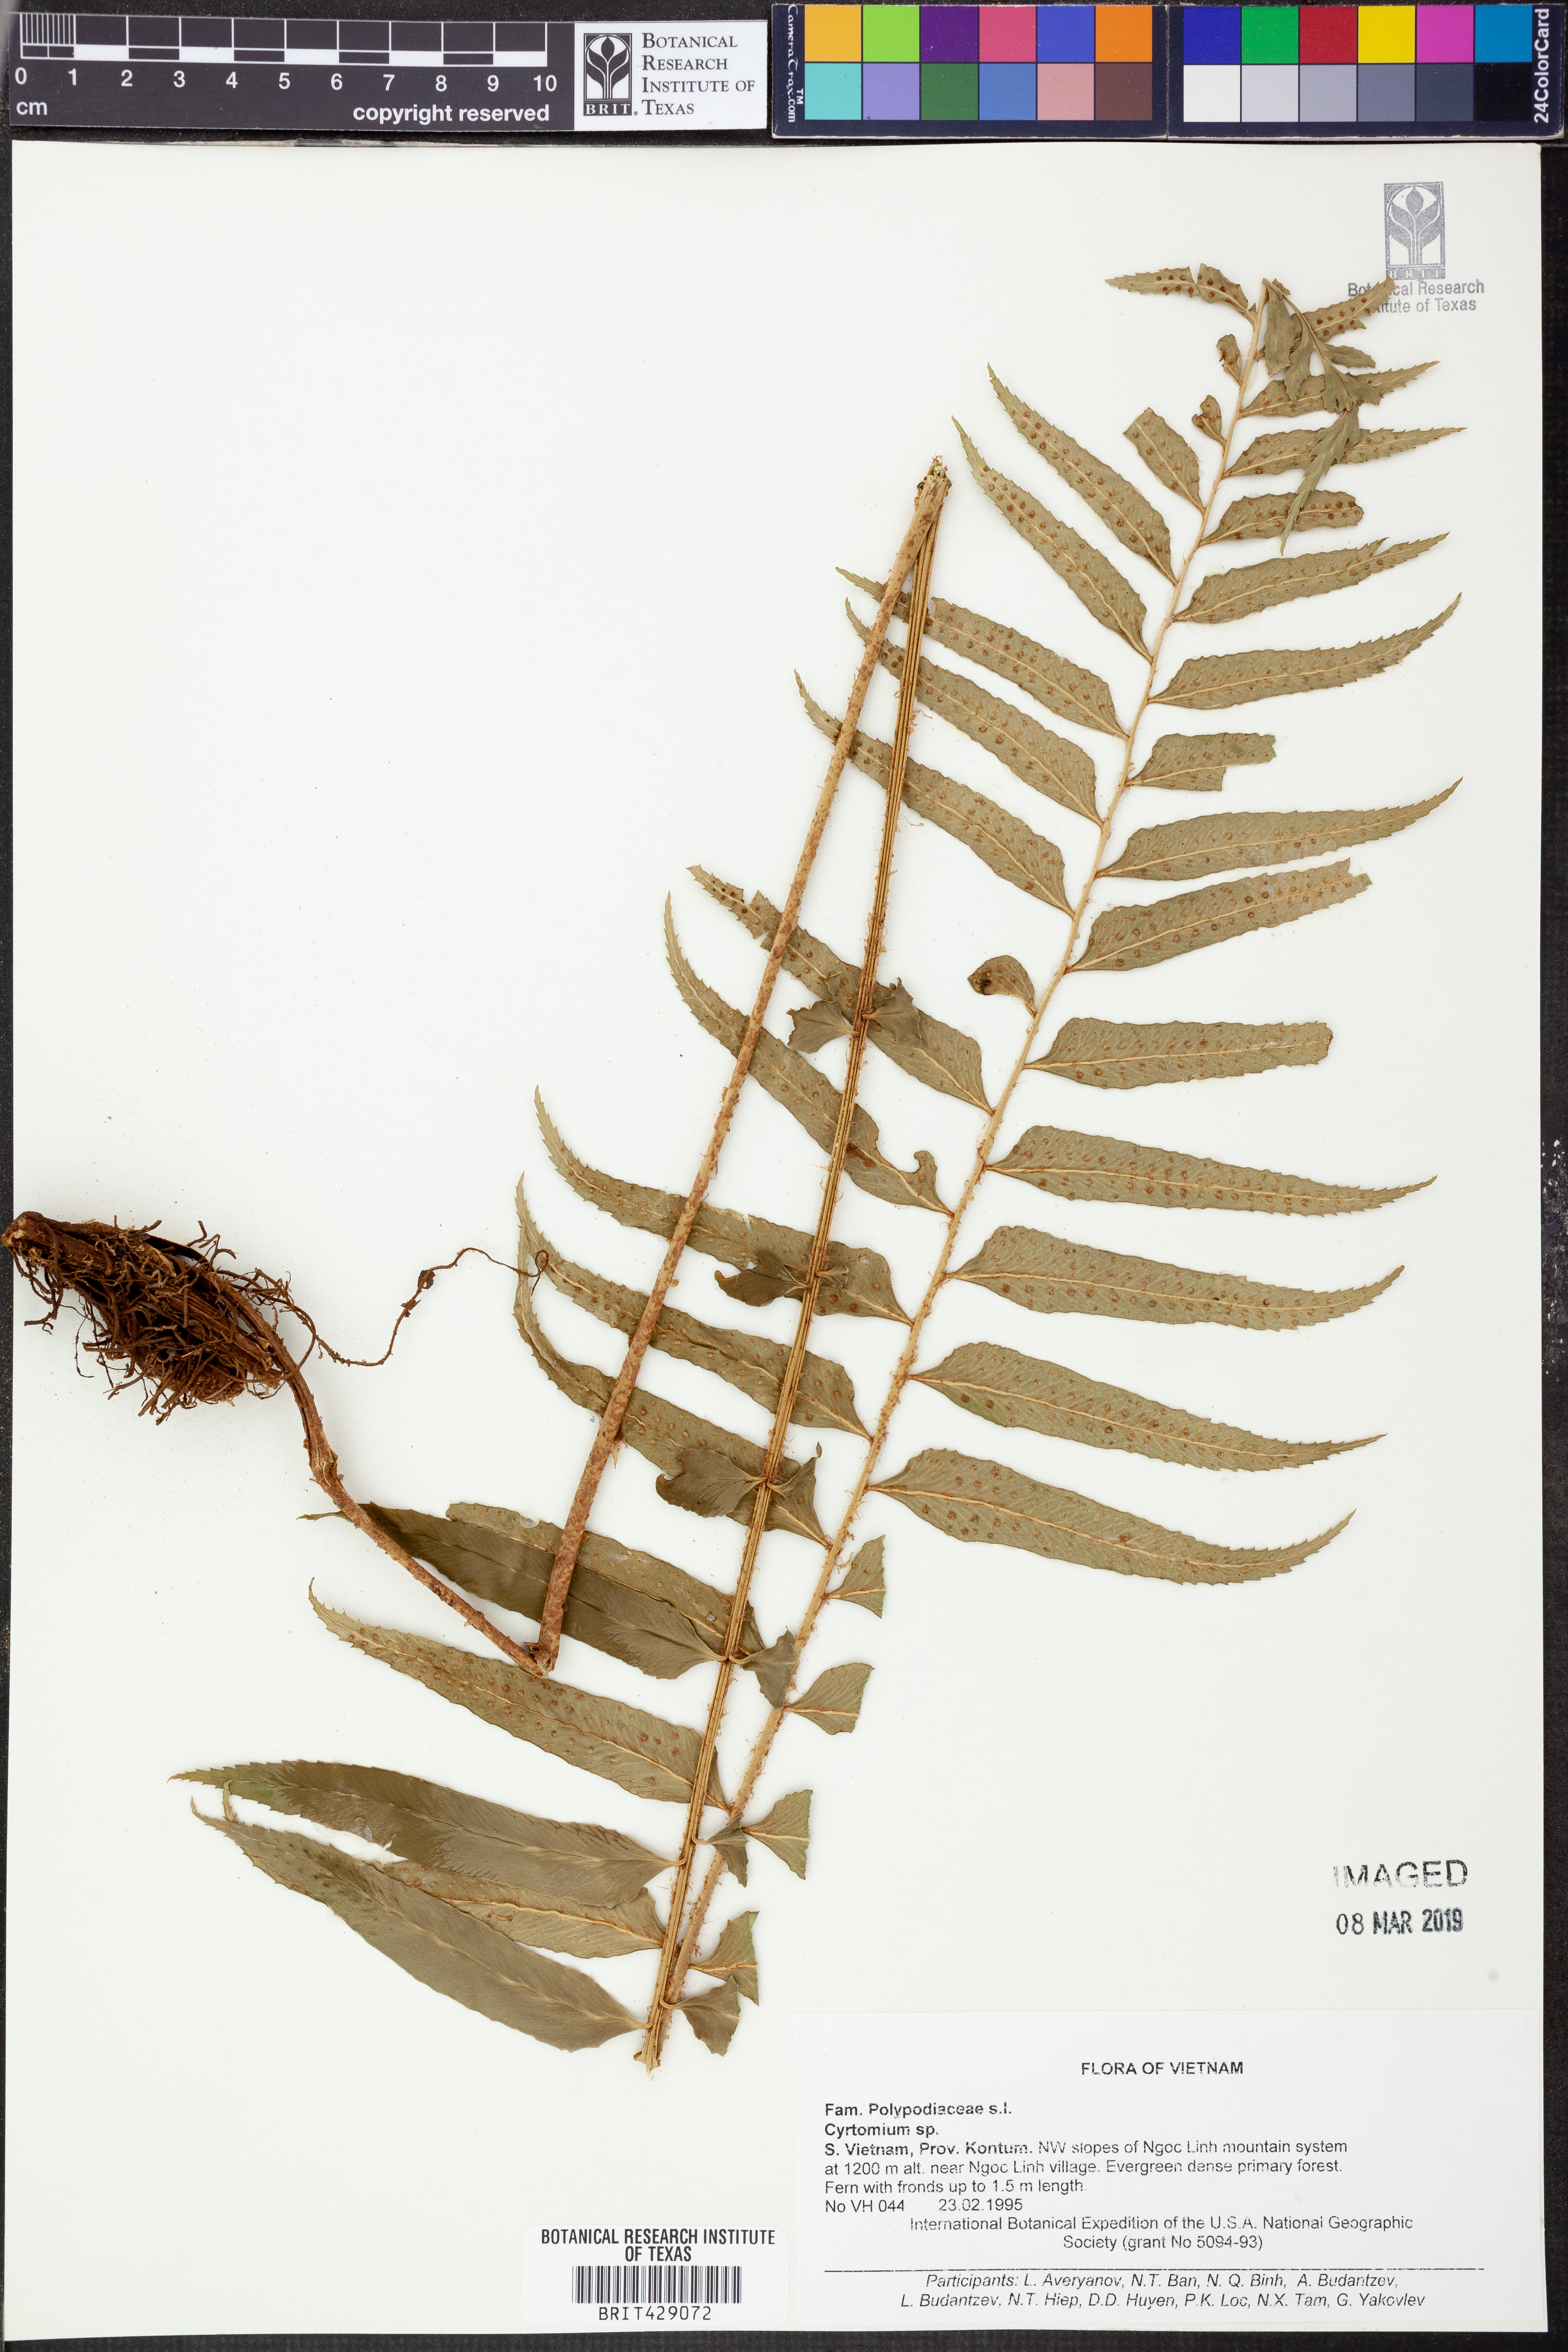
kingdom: Plantae
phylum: Tracheophyta
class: Polypodiopsida
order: Polypodiales
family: Dryopteridaceae
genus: Cyrtomium
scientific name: Cyrtomium
